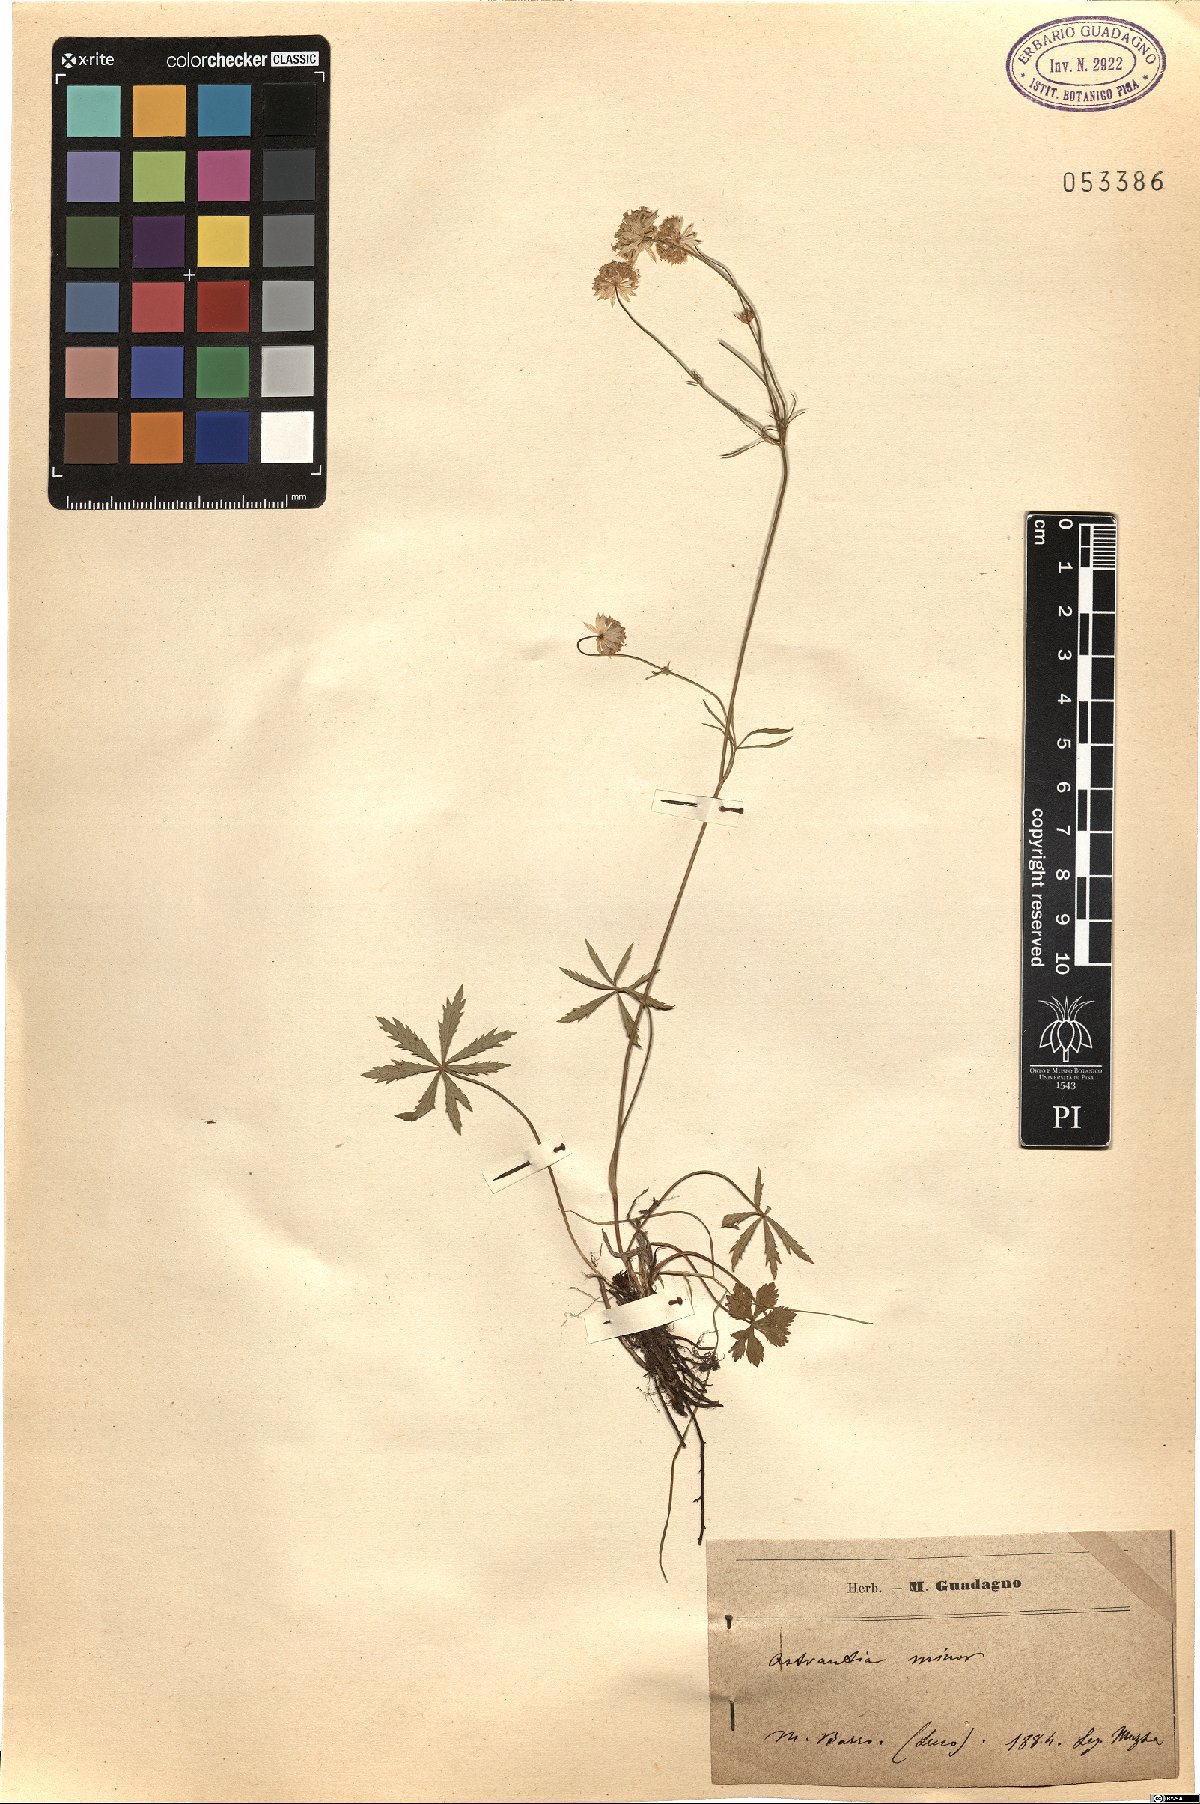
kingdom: Plantae
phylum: Tracheophyta
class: Magnoliopsida
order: Apiales
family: Apiaceae
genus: Astrantia
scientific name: Astrantia minor
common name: Lesser masterwort
